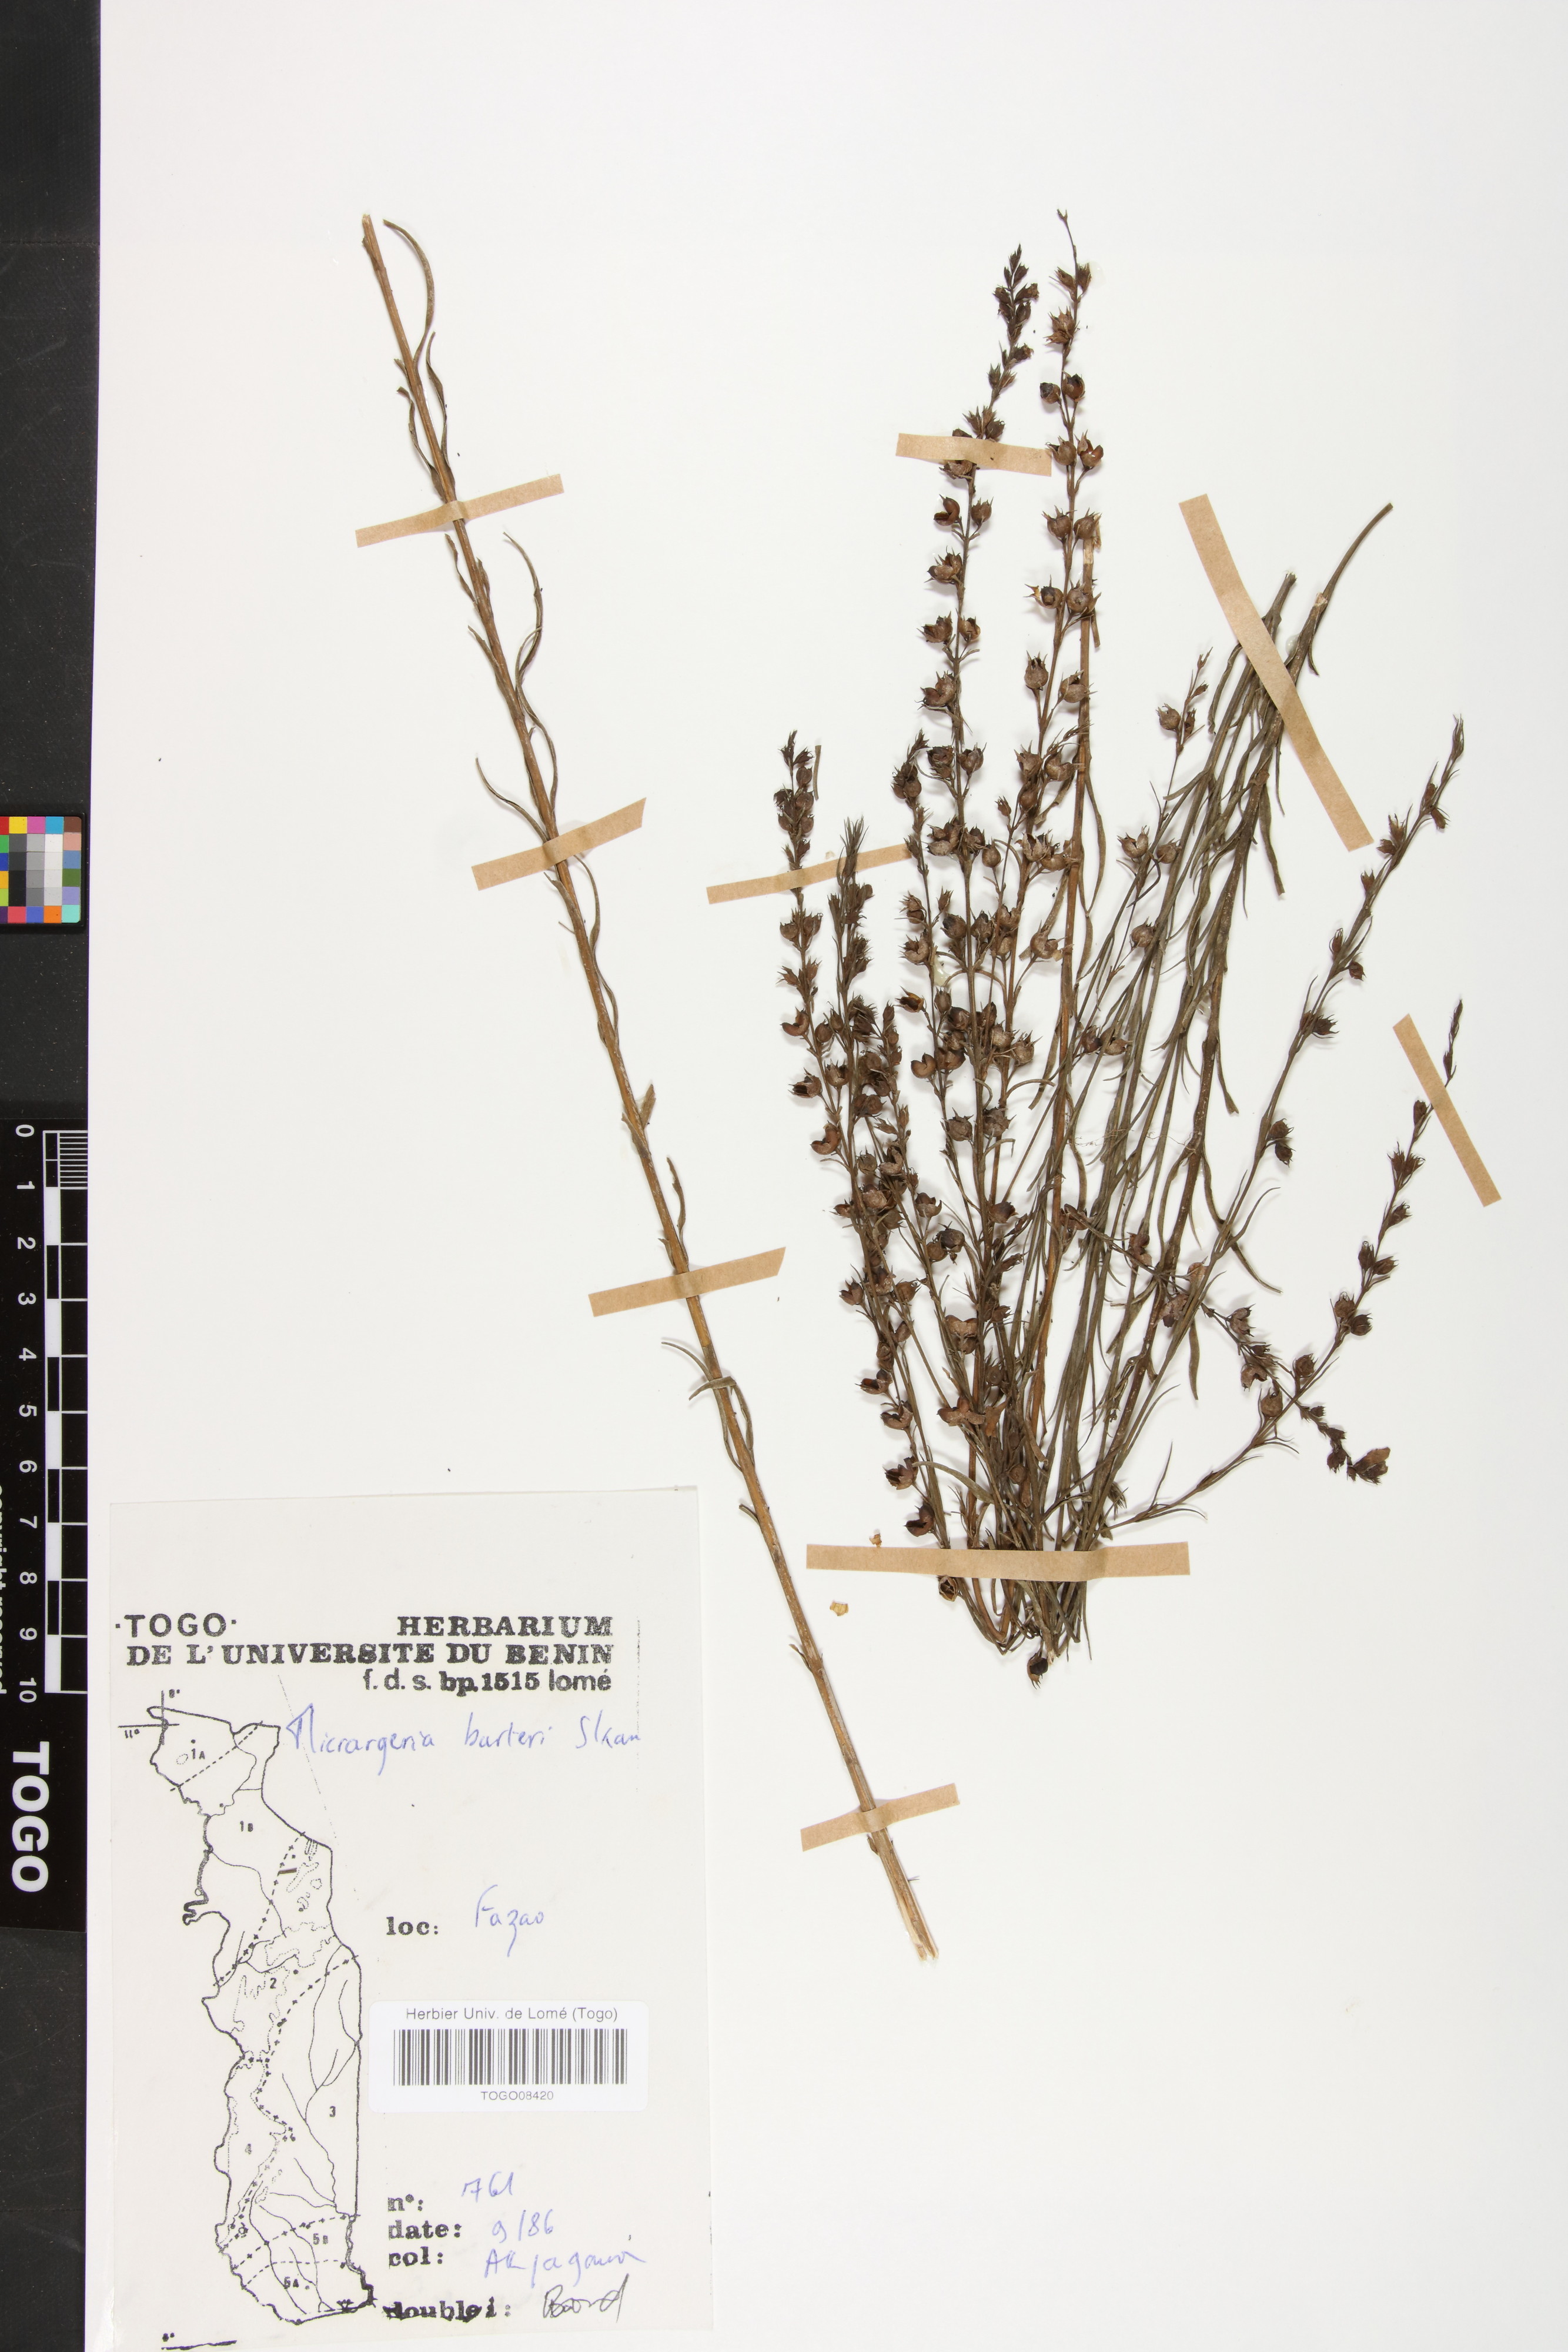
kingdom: Plantae
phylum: Tracheophyta
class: Magnoliopsida
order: Lamiales
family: Orobanchaceae
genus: Micrargeria
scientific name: Micrargeria filiformis
